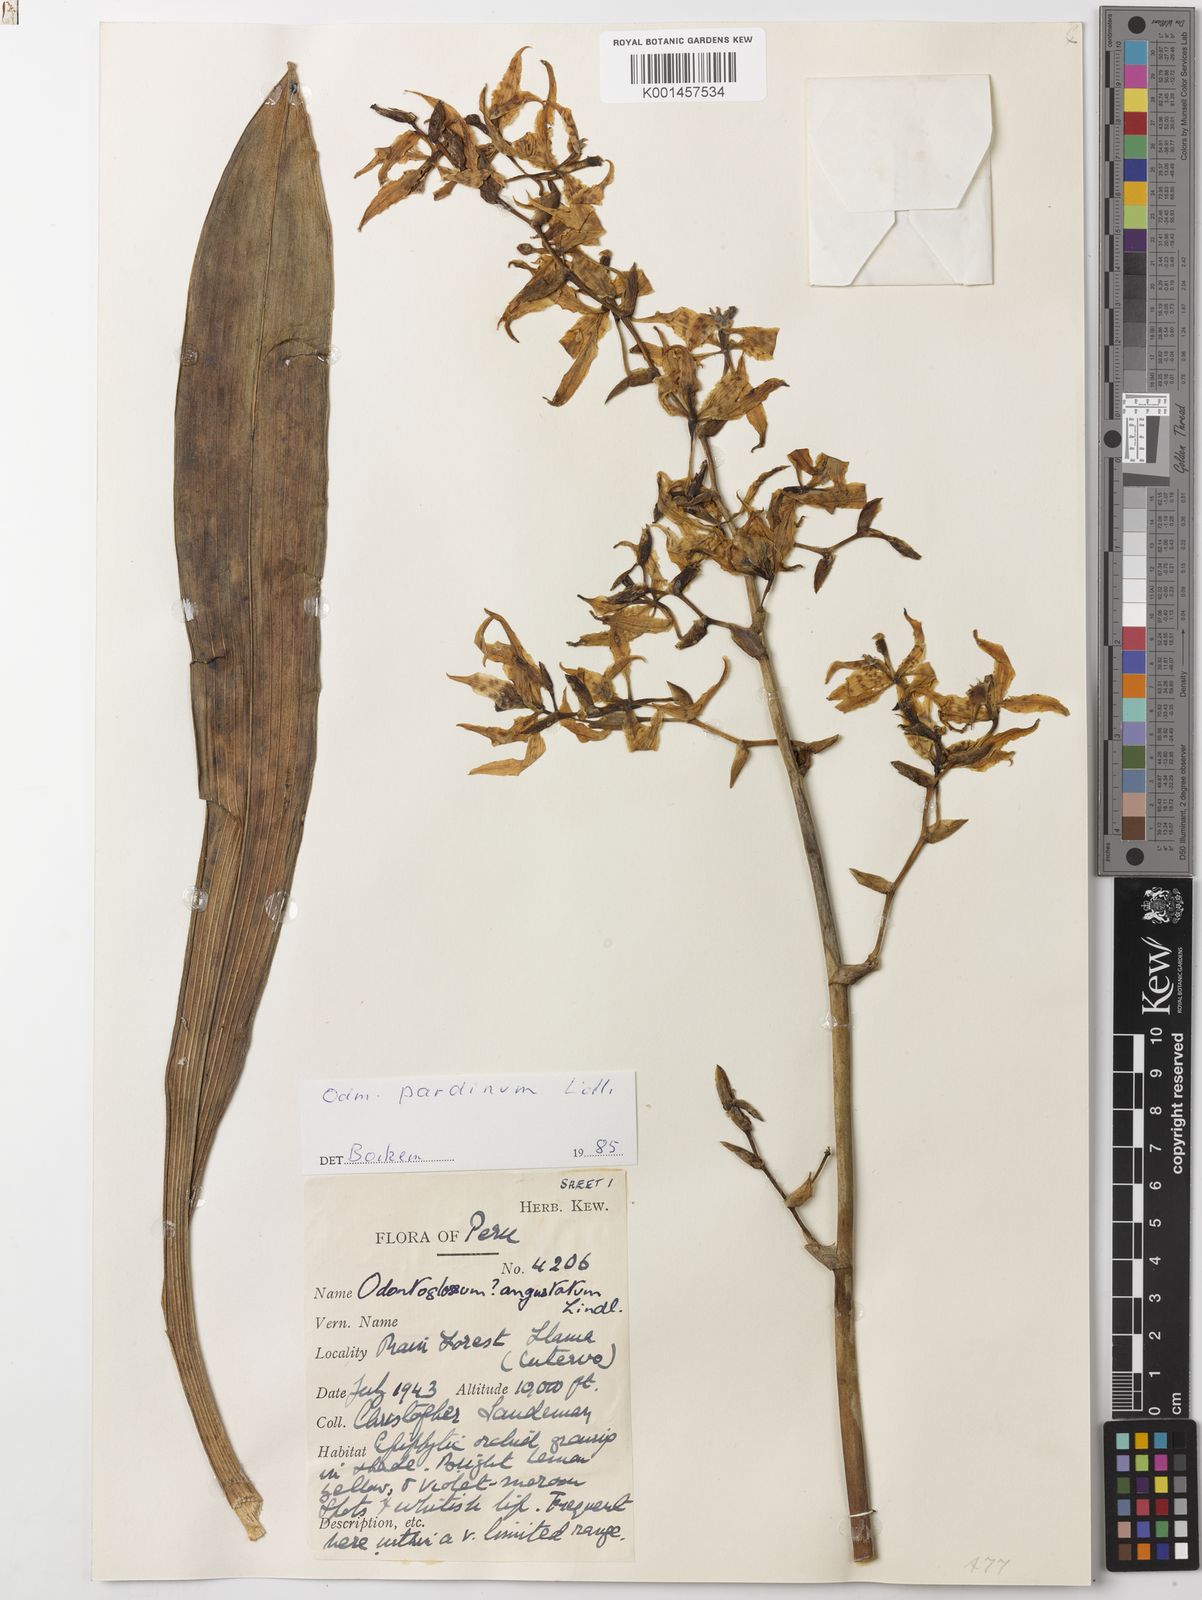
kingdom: Plantae
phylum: Tracheophyta
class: Liliopsida
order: Asparagales
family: Orchidaceae
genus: Cyrtochilum
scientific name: Cyrtochilum pardinum
